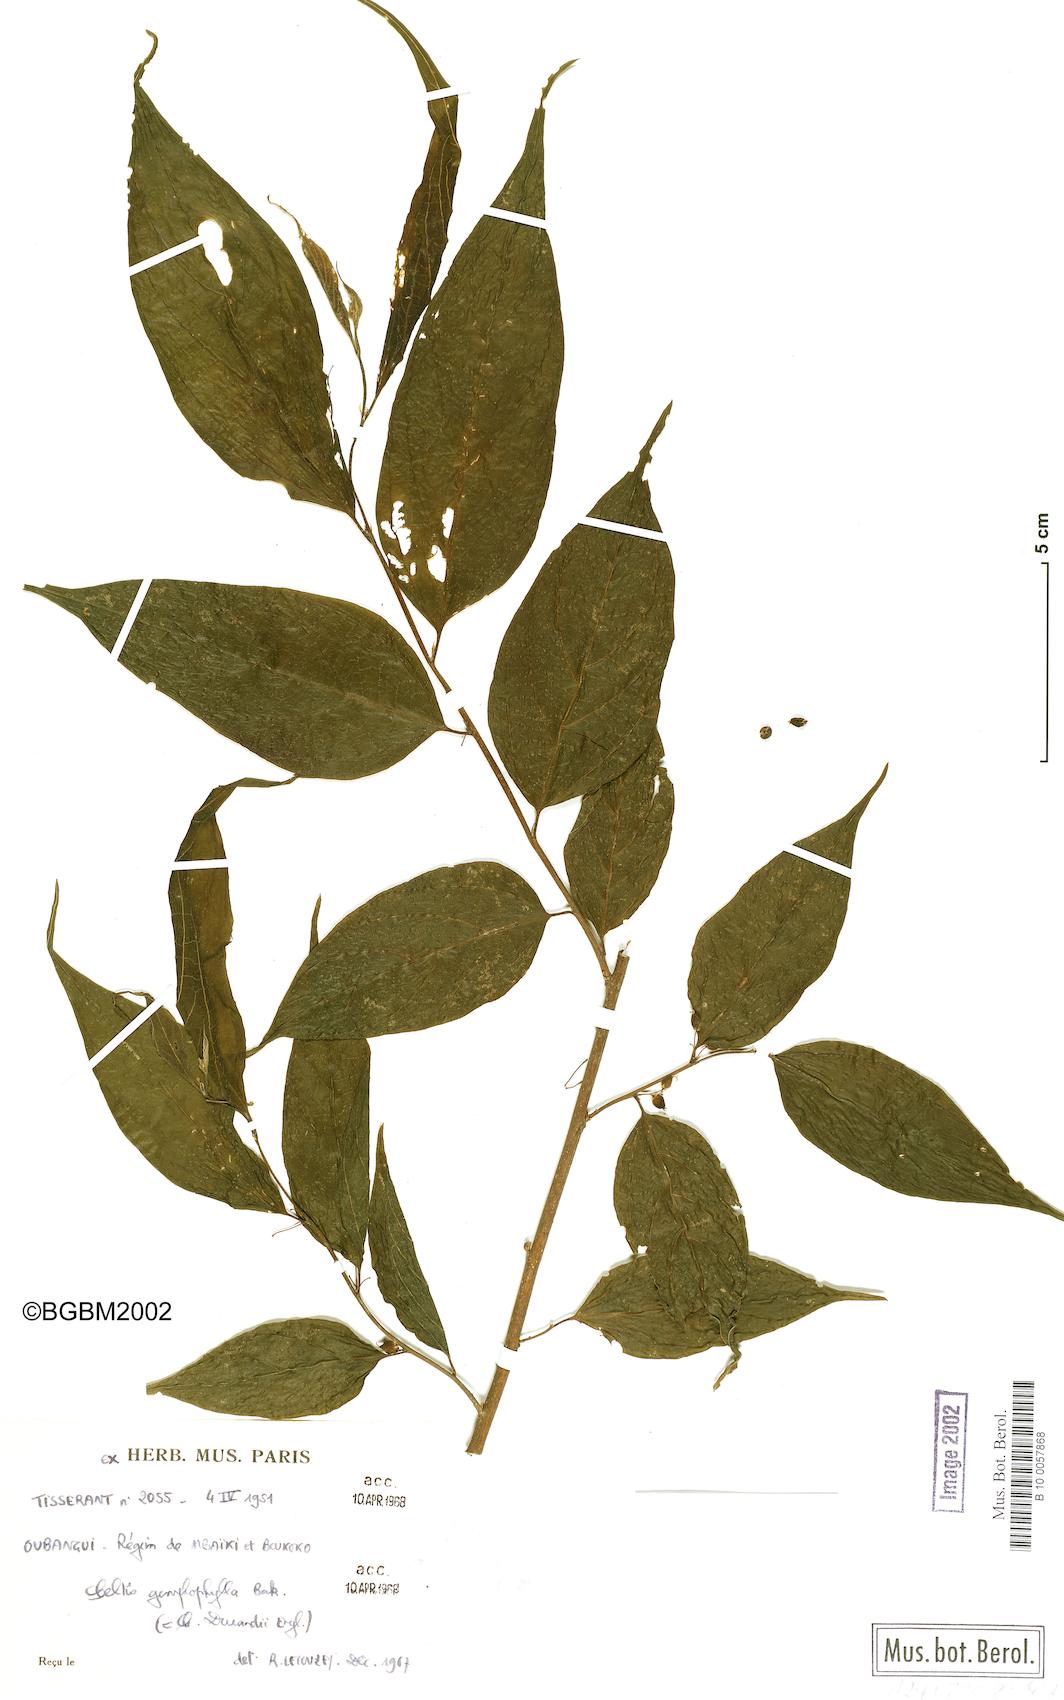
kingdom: Plantae
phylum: Tracheophyta
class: Magnoliopsida
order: Rosales
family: Cannabaceae
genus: Celtis
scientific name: Celtis gomphophylla
